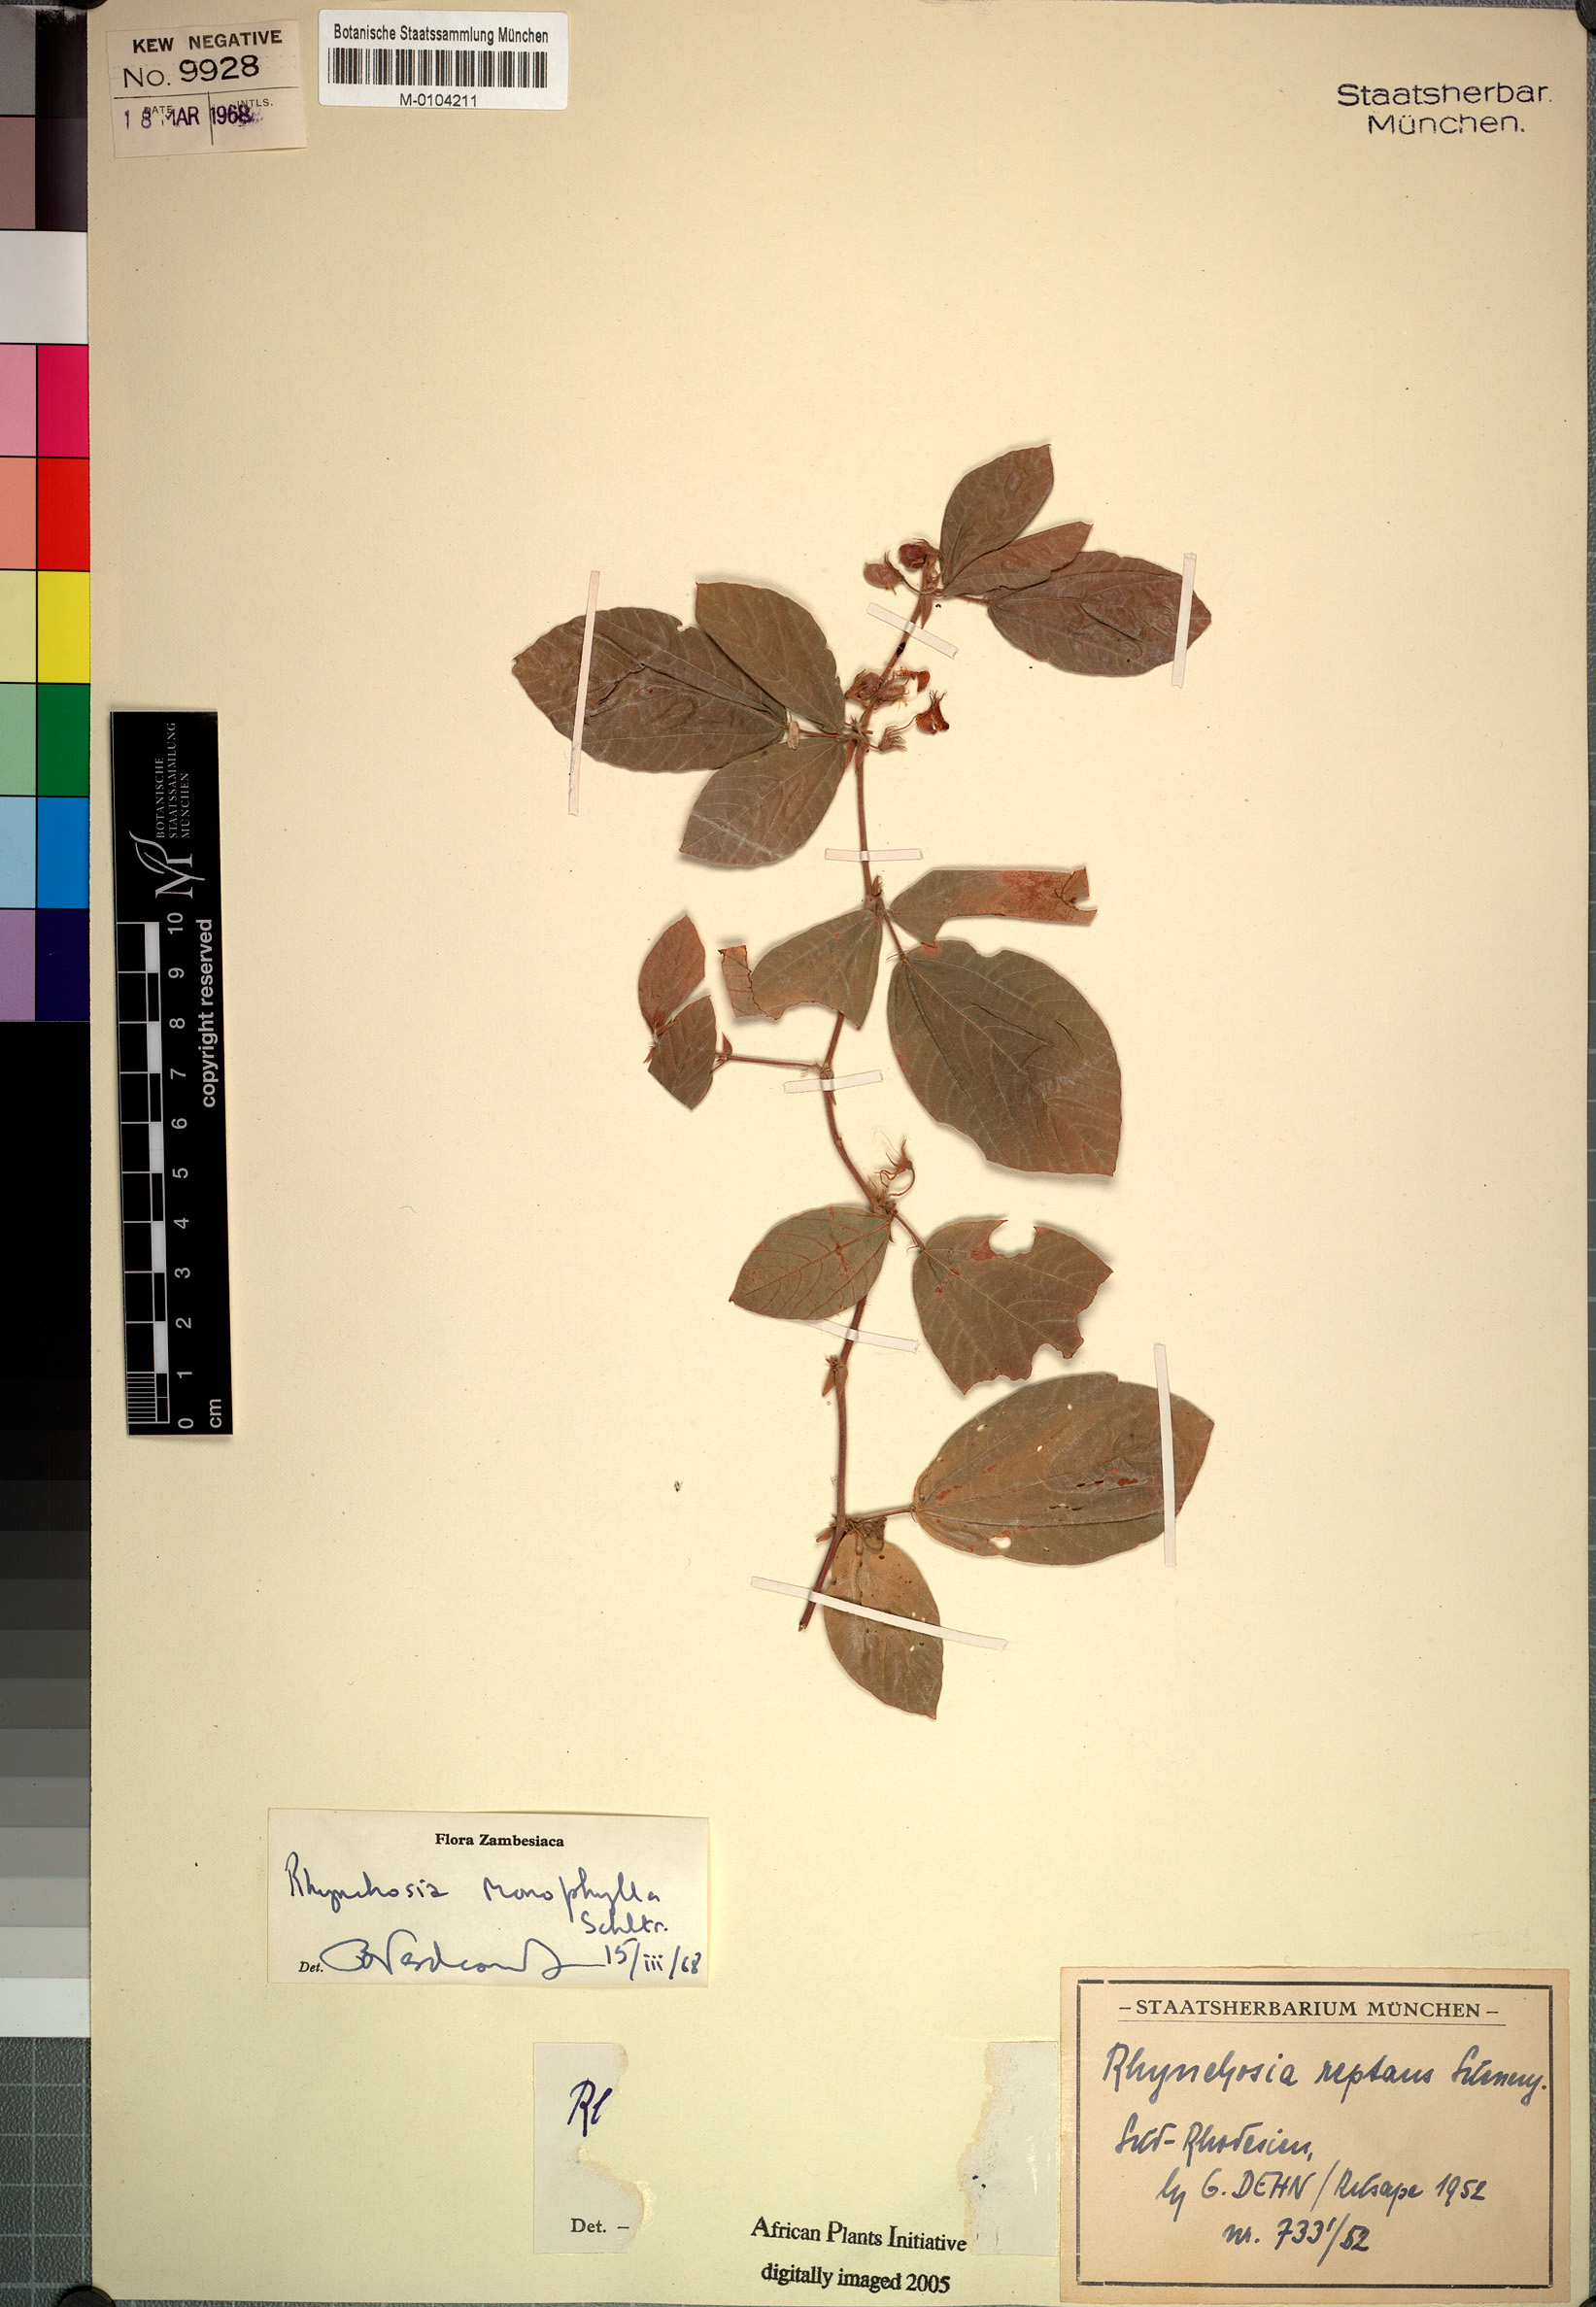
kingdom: Plantae
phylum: Tracheophyta
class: Magnoliopsida
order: Fabales
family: Fabaceae
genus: Rhynchosia
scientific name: Rhynchosia monophylla
